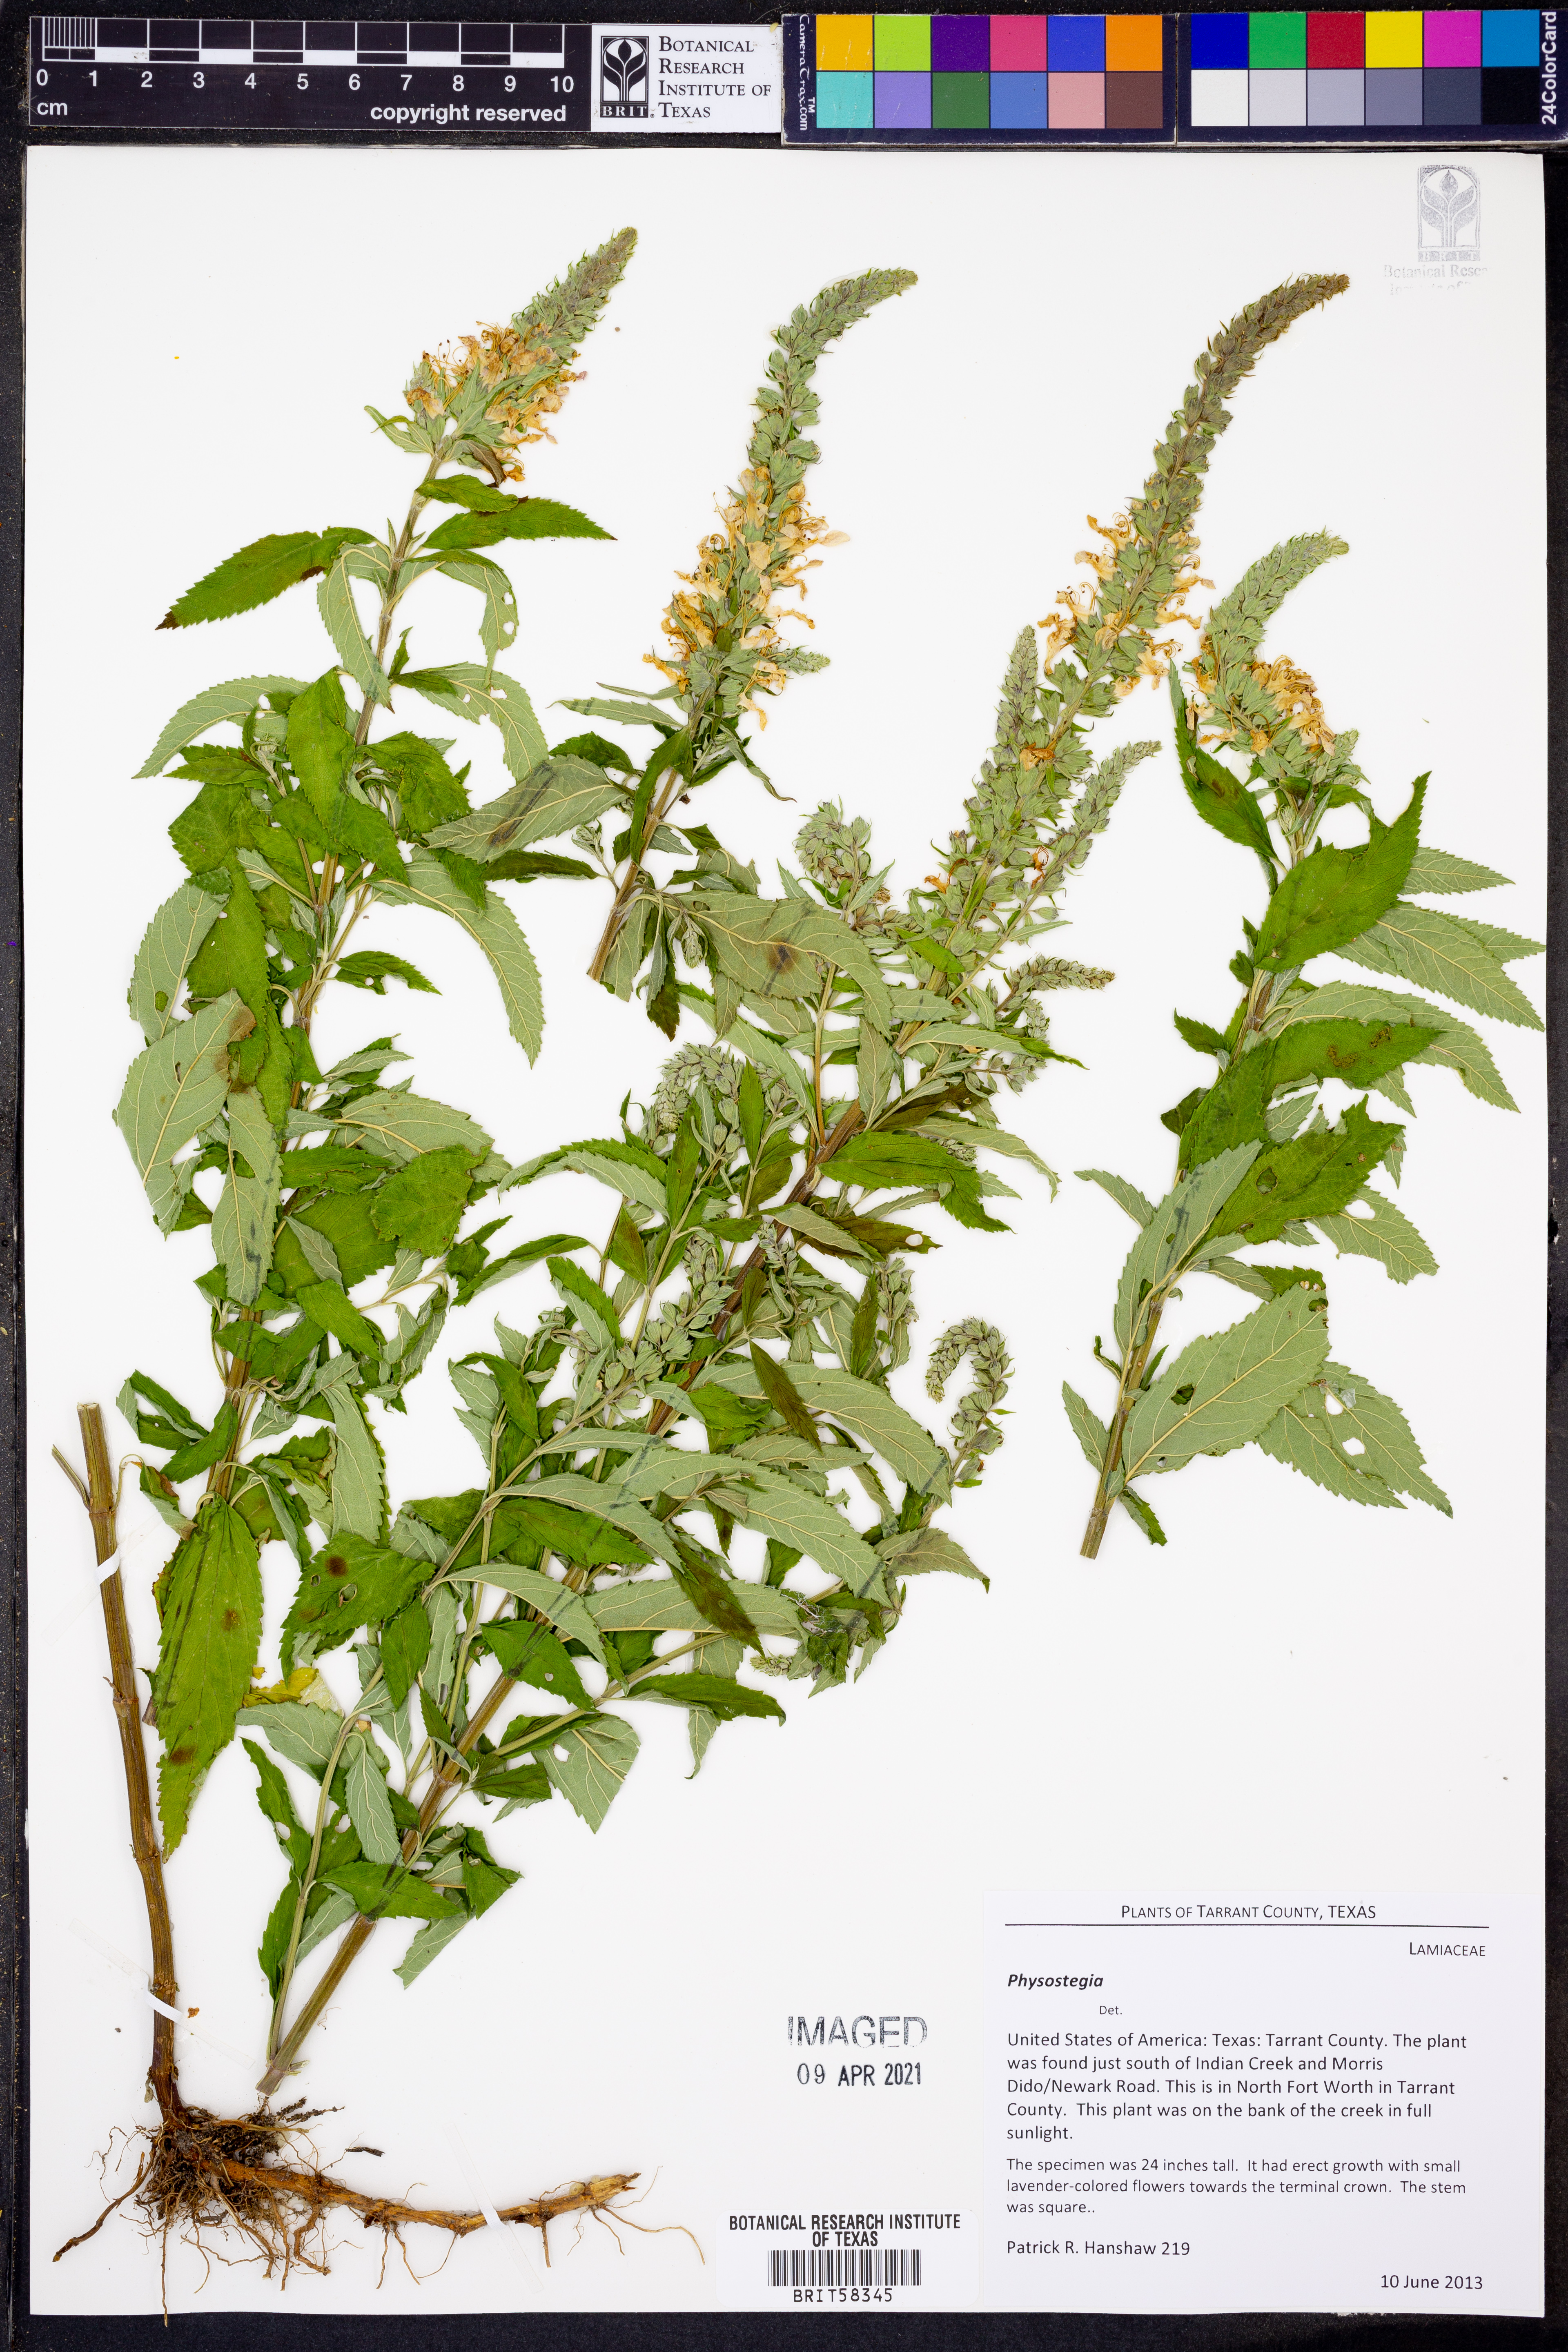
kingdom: Plantae
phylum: Tracheophyta
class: Magnoliopsida
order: Lamiales
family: Lamiaceae
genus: Physostegia
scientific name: Physostegia
